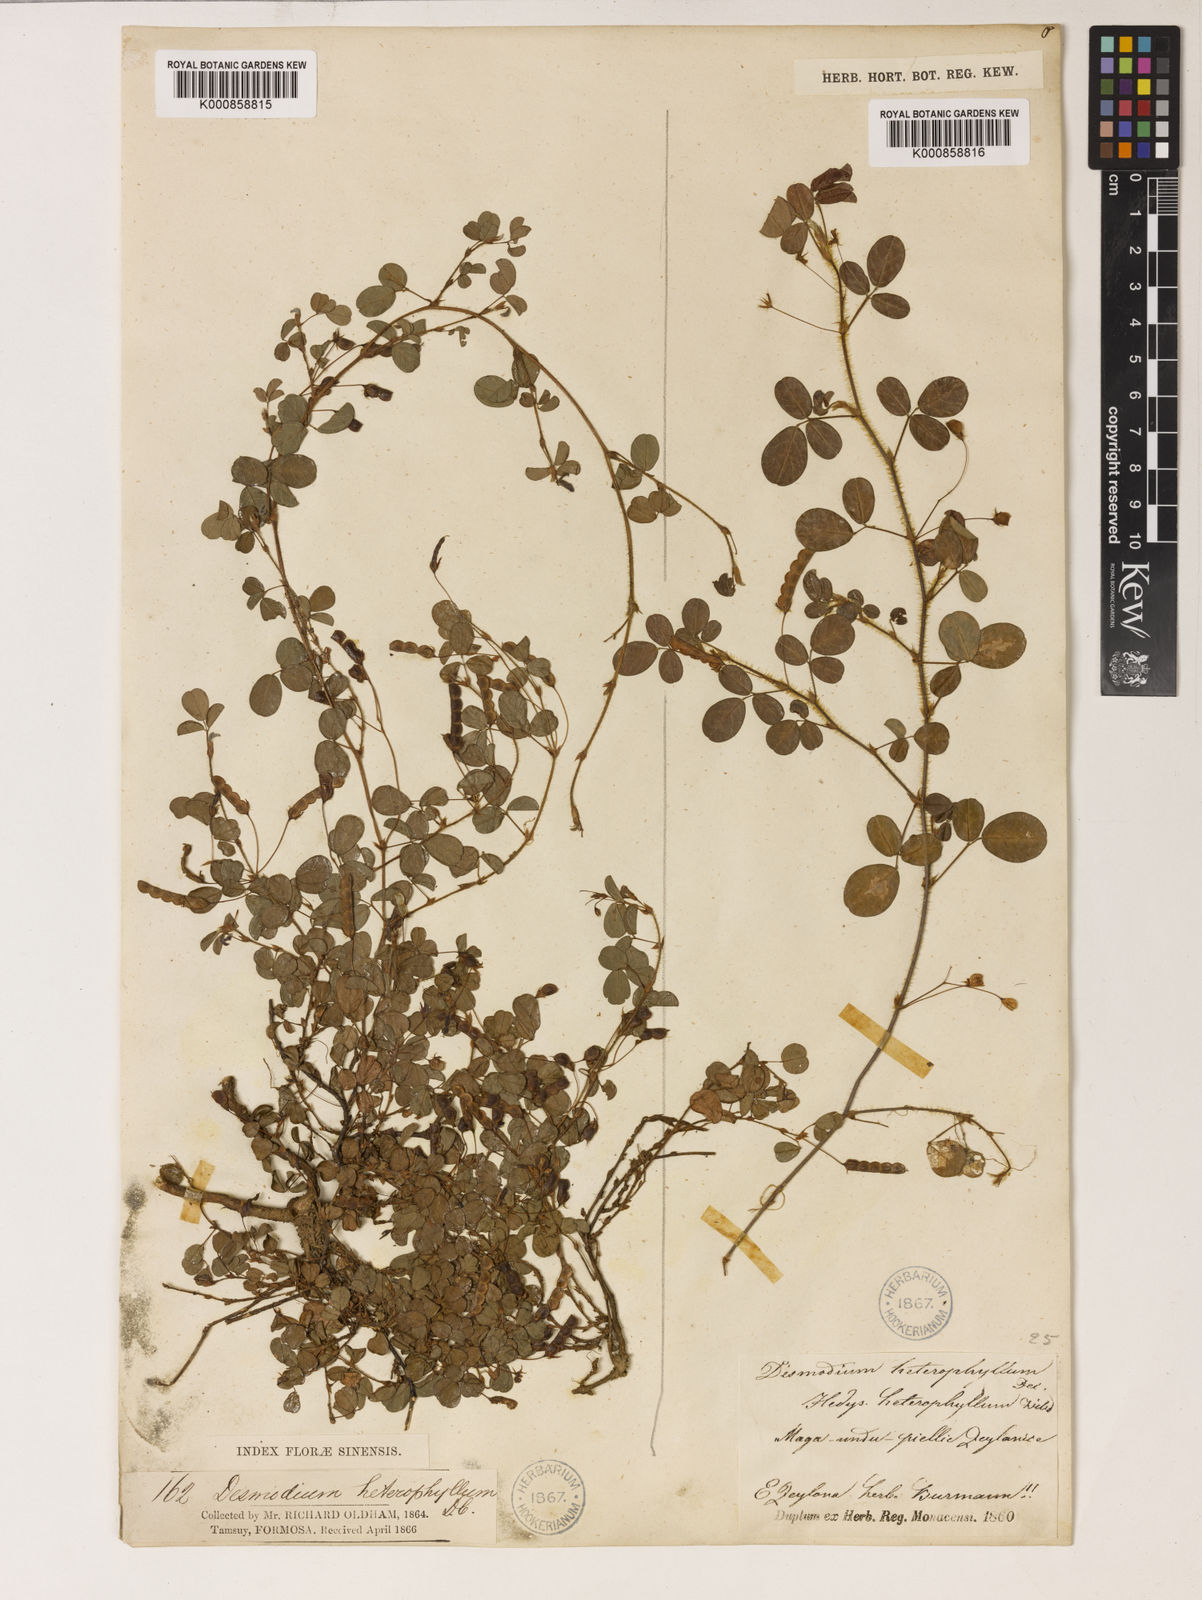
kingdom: Plantae
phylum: Tracheophyta
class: Magnoliopsida
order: Fabales
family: Fabaceae
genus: Grona
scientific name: Grona heterophylla
